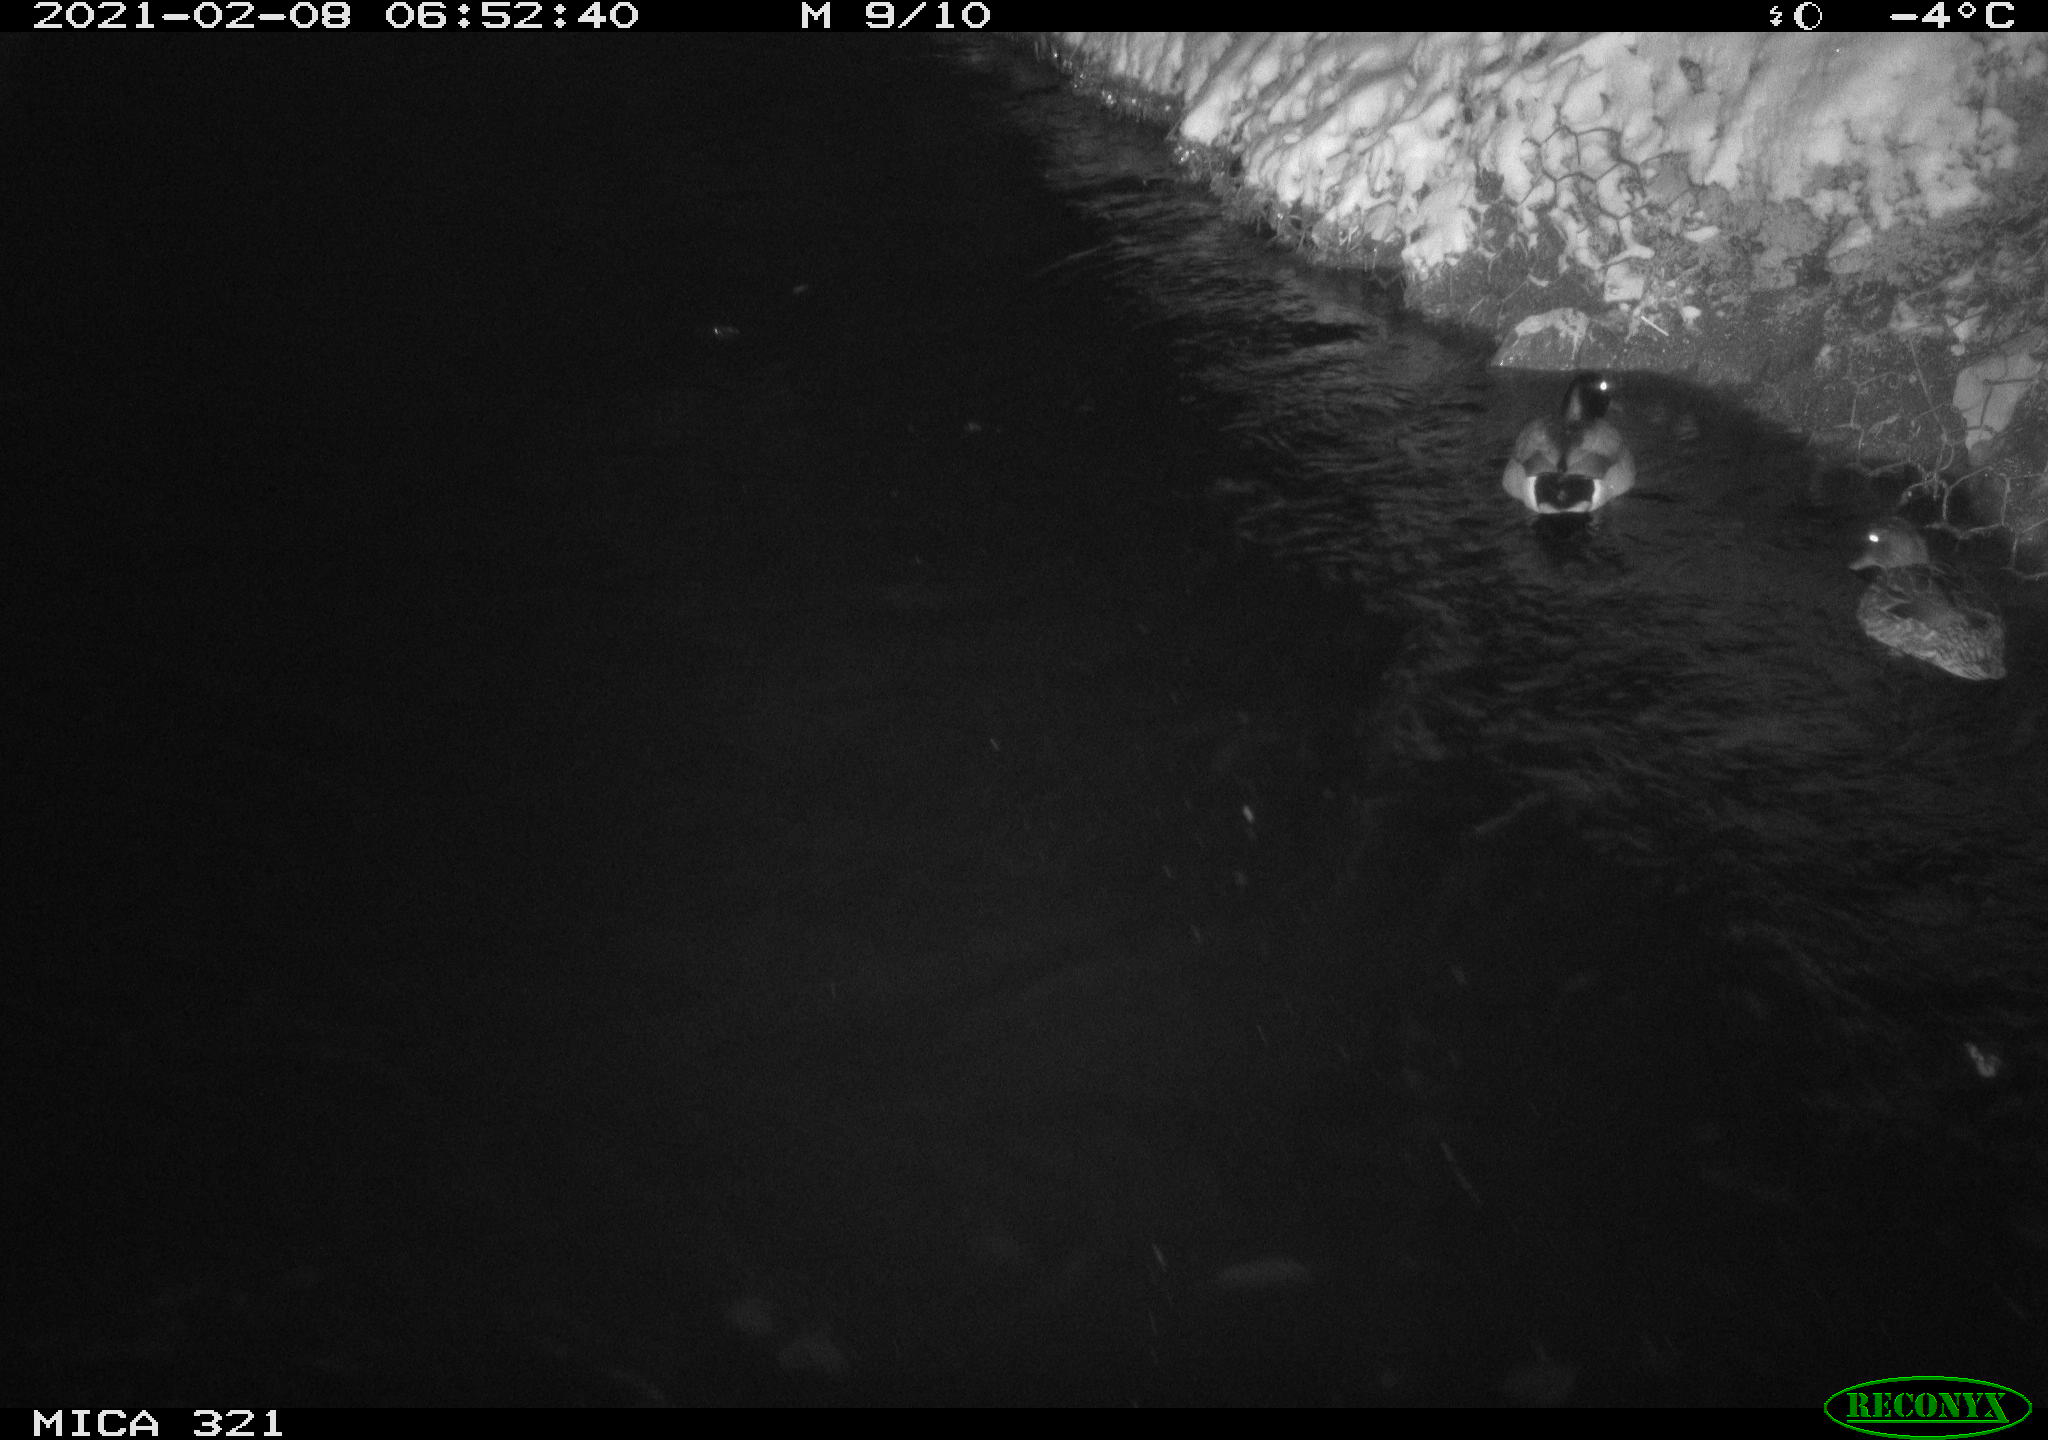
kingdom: Animalia
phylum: Chordata
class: Aves
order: Anseriformes
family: Anatidae
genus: Anas
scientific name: Anas platyrhynchos
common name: Mallard
